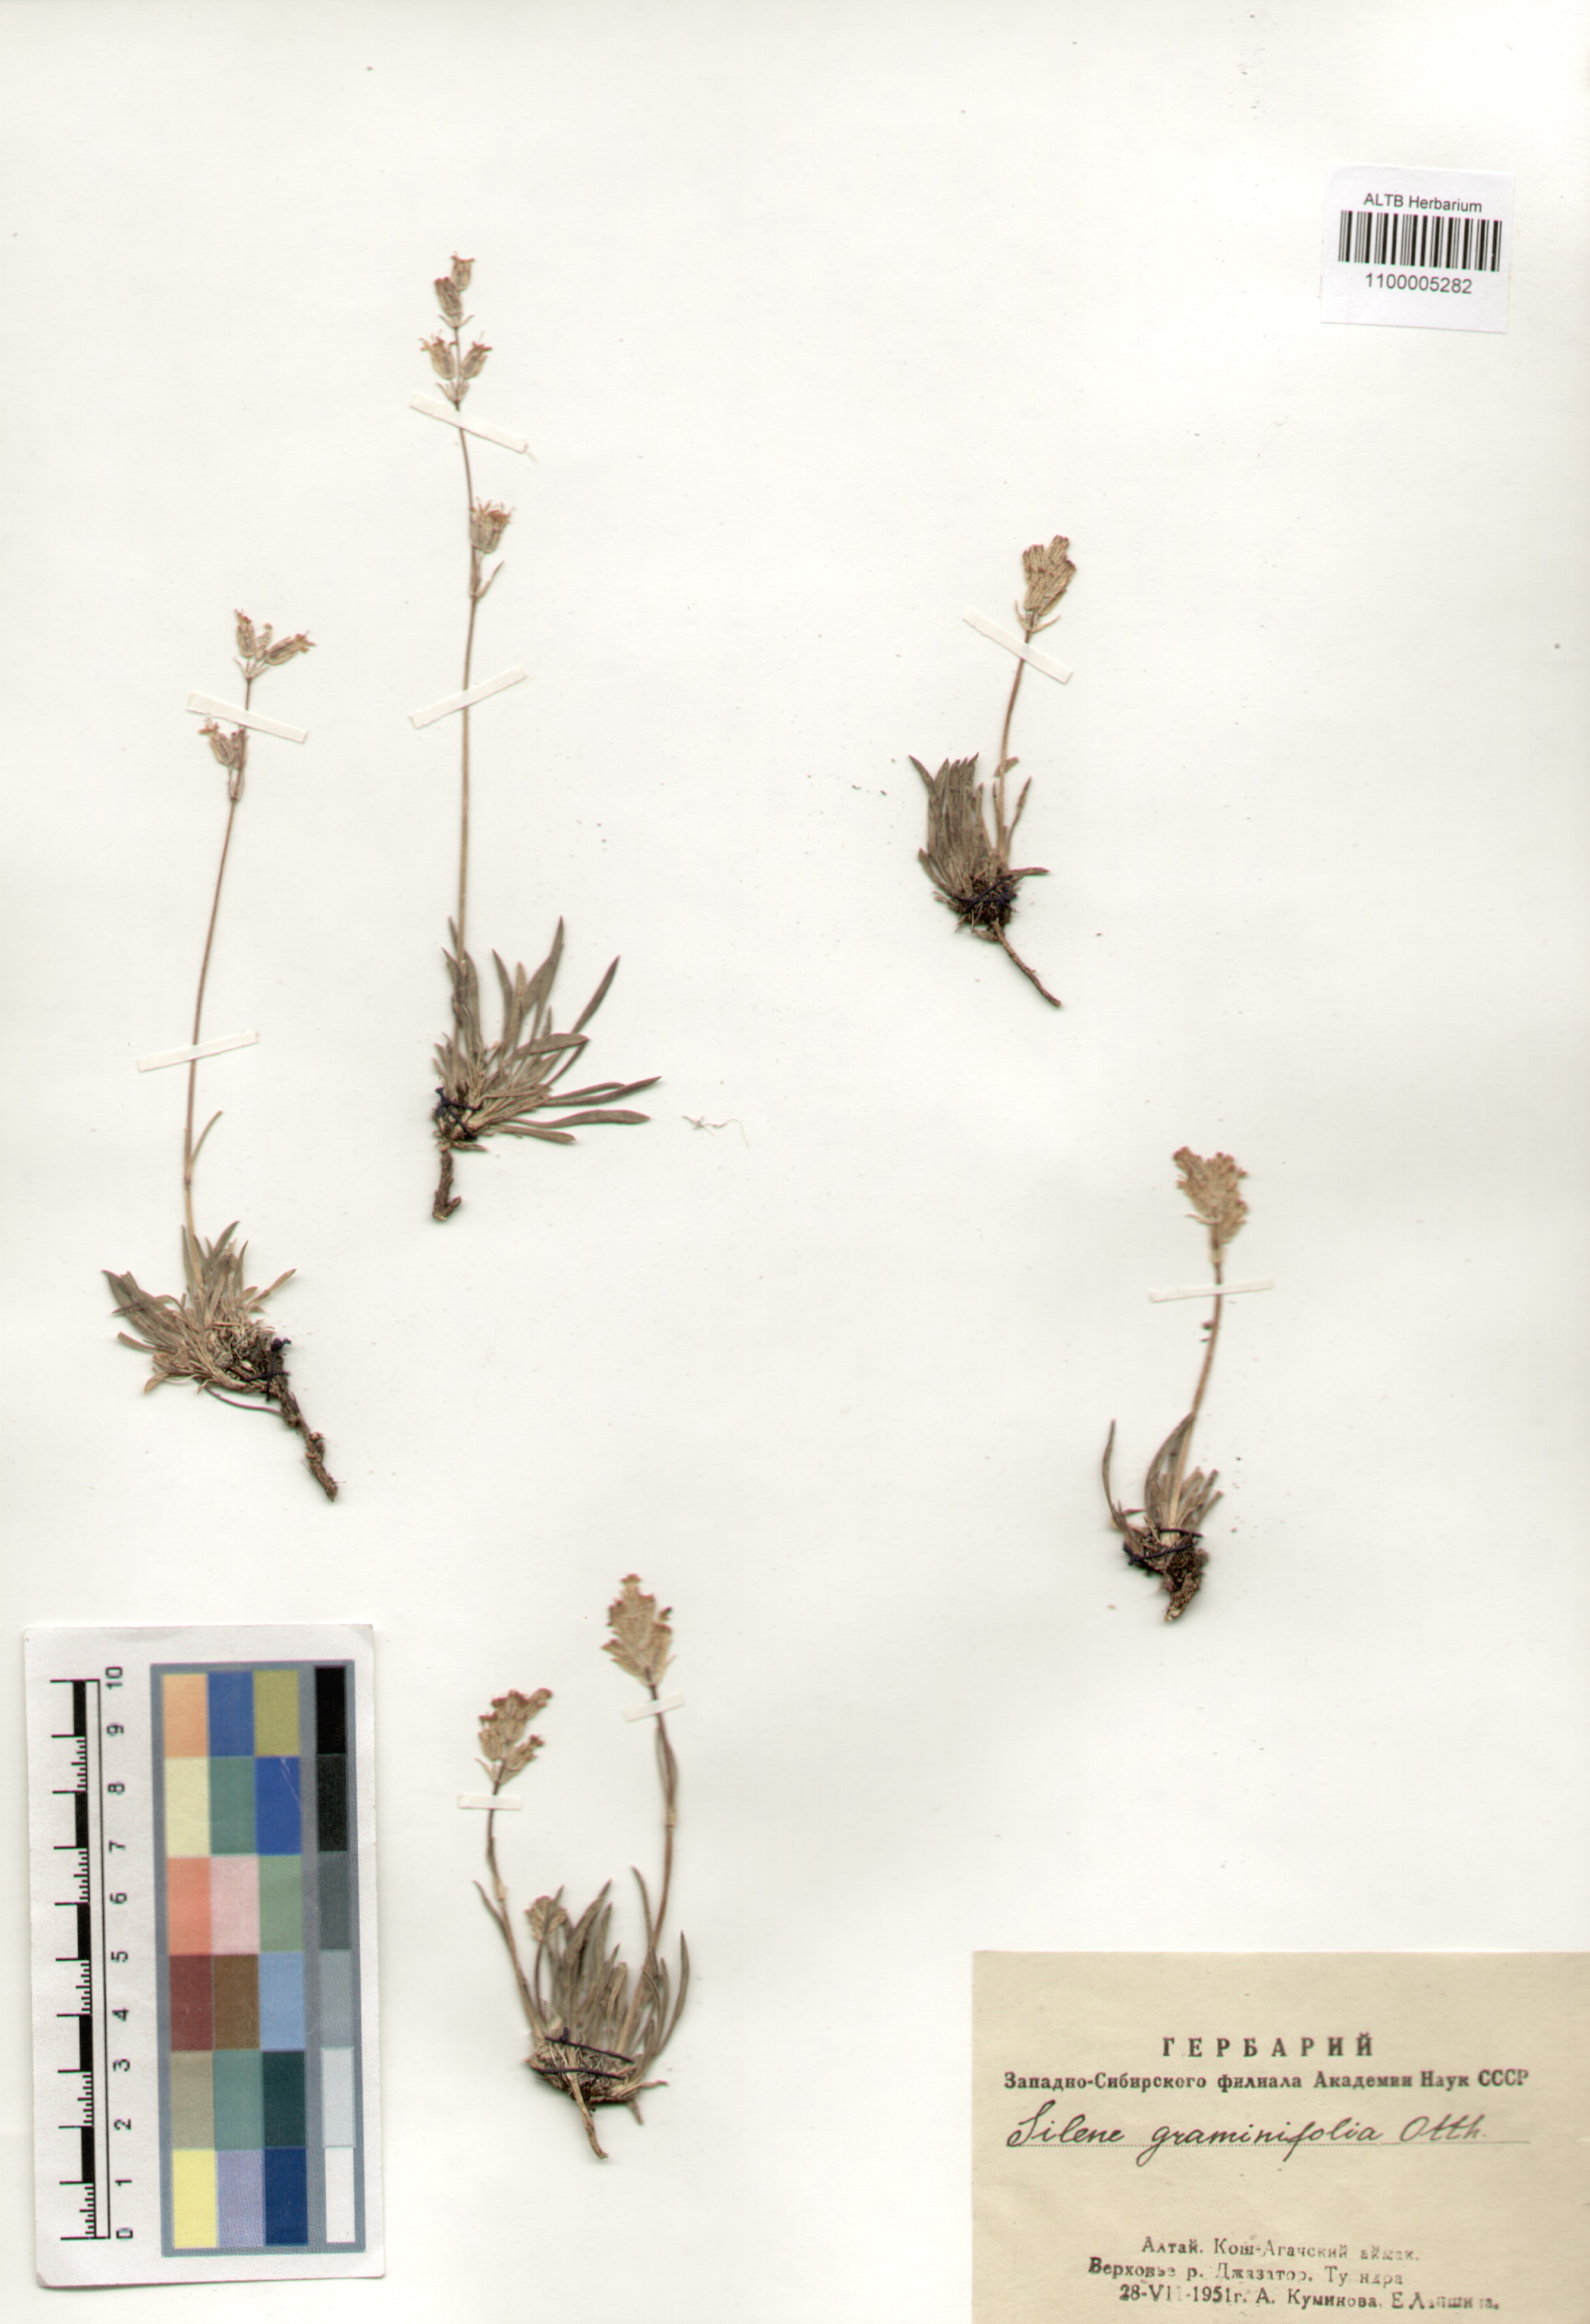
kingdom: Plantae
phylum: Tracheophyta
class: Magnoliopsida
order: Caryophyllales
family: Caryophyllaceae
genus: Silene
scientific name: Silene graminifolia
